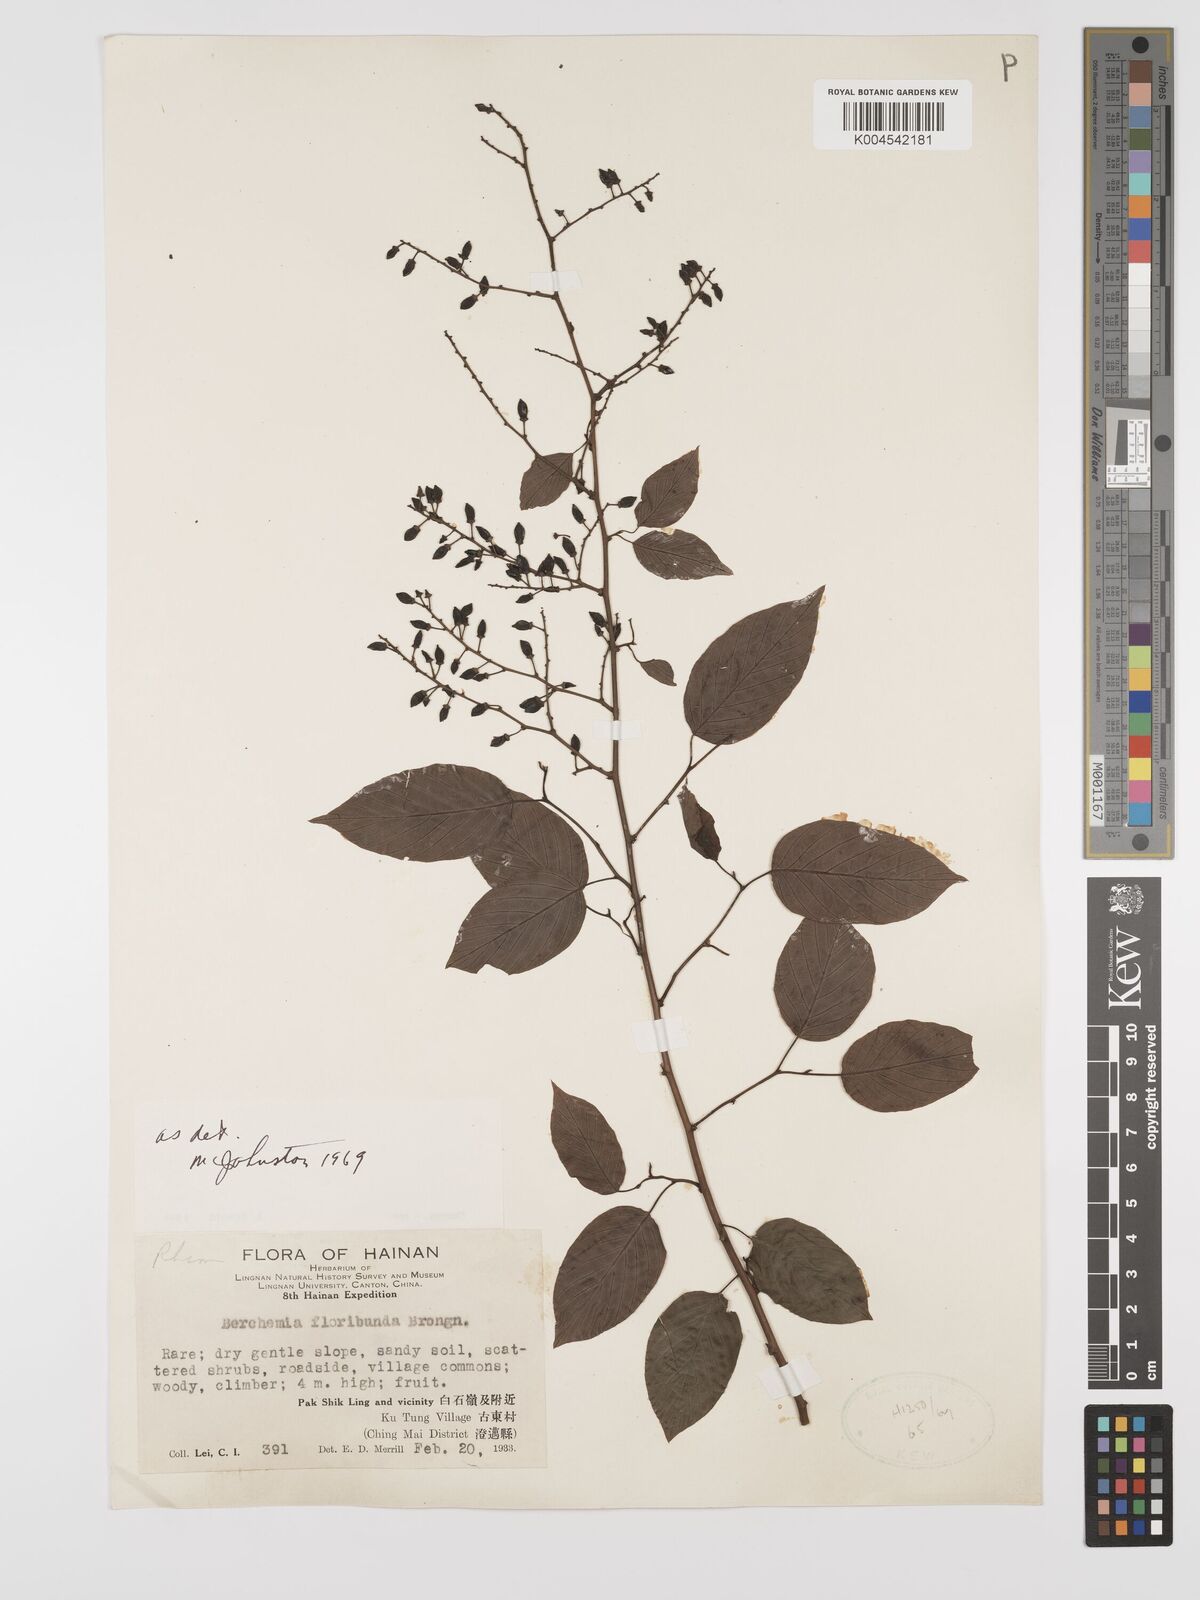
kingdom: Plantae
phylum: Tracheophyta
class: Magnoliopsida
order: Rosales
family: Rhamnaceae
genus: Berchemia
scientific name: Berchemia floribunda
